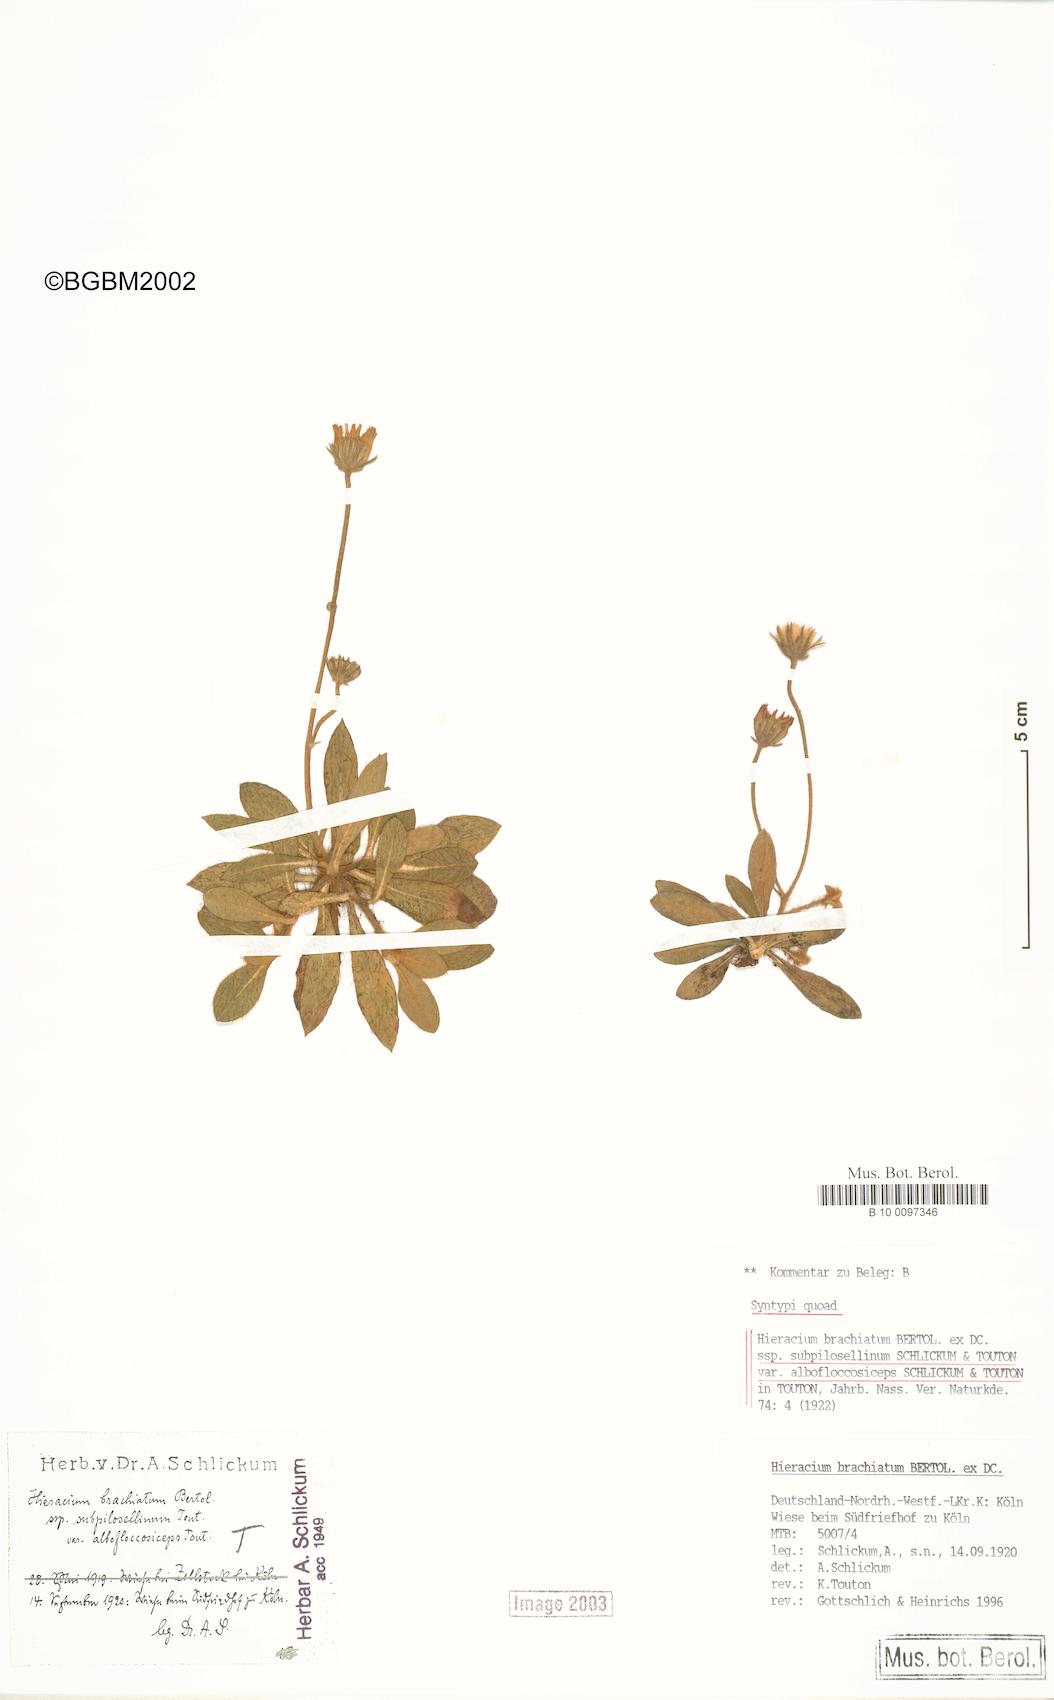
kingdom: Plantae
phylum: Tracheophyta
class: Magnoliopsida
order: Asterales
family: Asteraceae
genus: Pilosella
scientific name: Pilosella acutifolia
